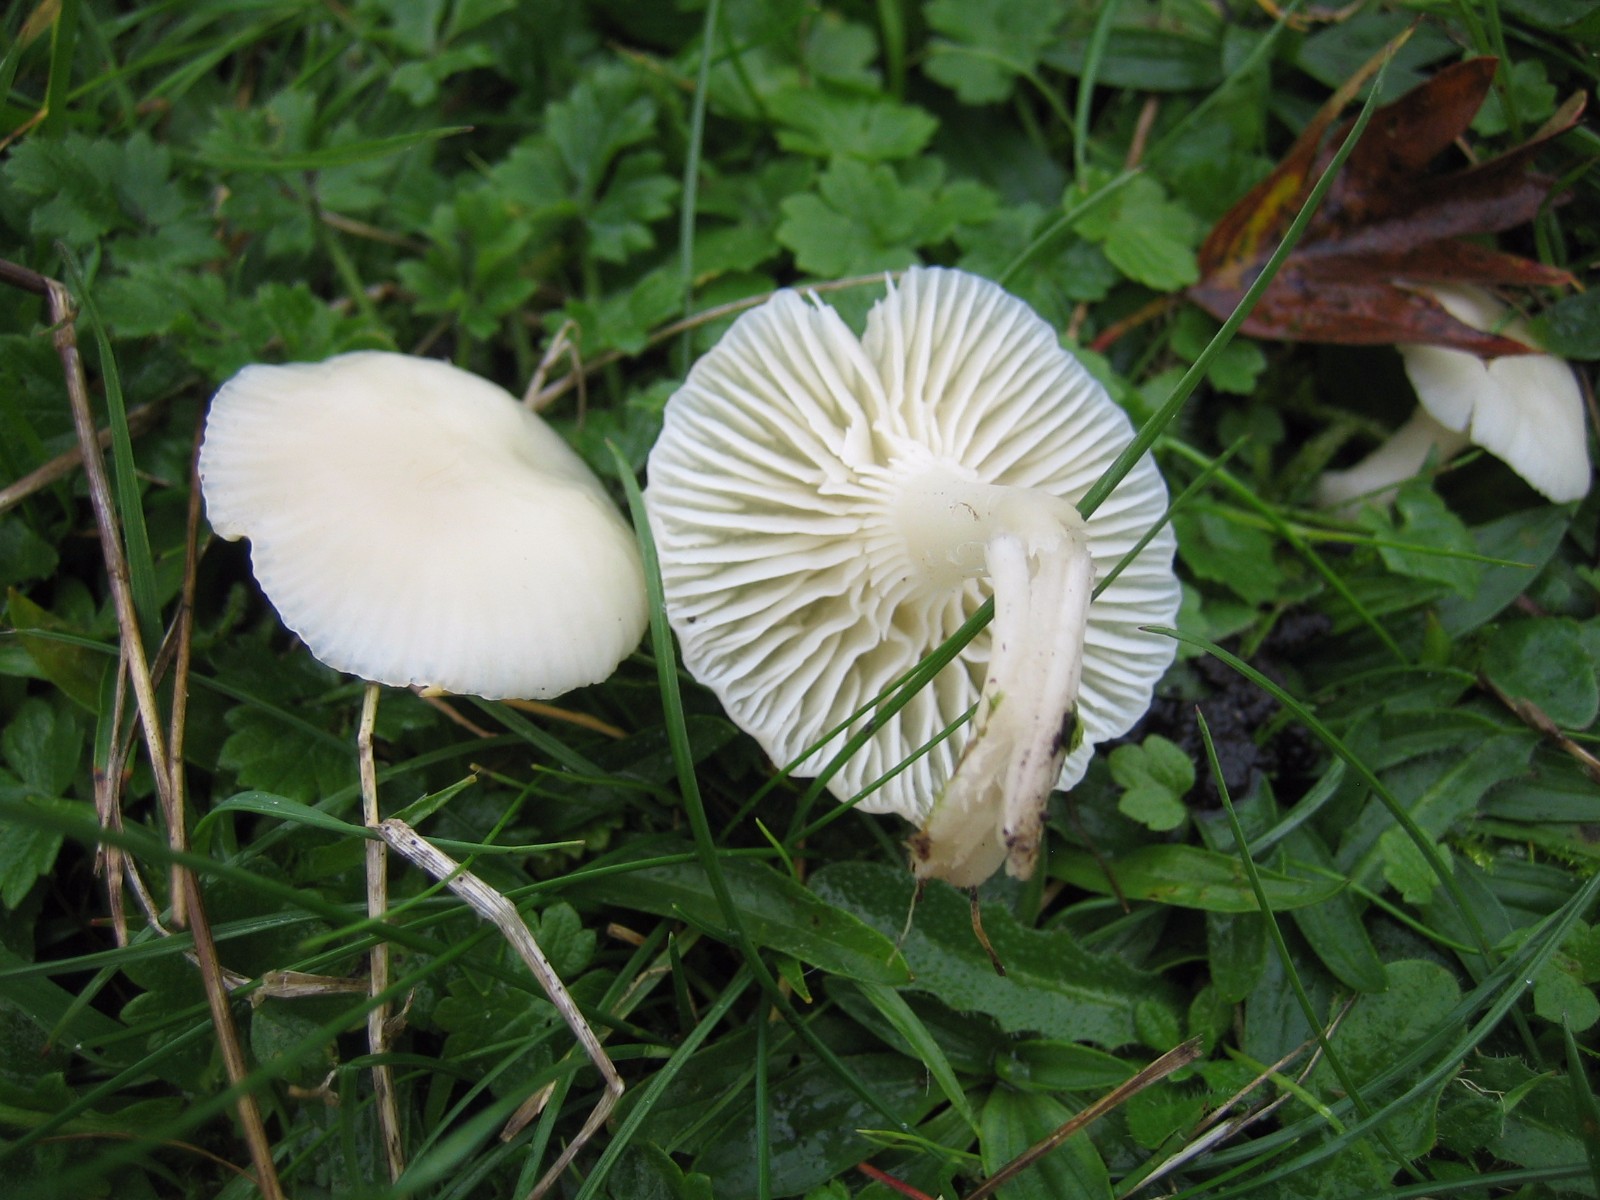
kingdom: Fungi
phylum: Basidiomycota
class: Agaricomycetes
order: Agaricales
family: Hygrophoraceae
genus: Cuphophyllus
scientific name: Cuphophyllus virgineus
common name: snehvid vokshat
